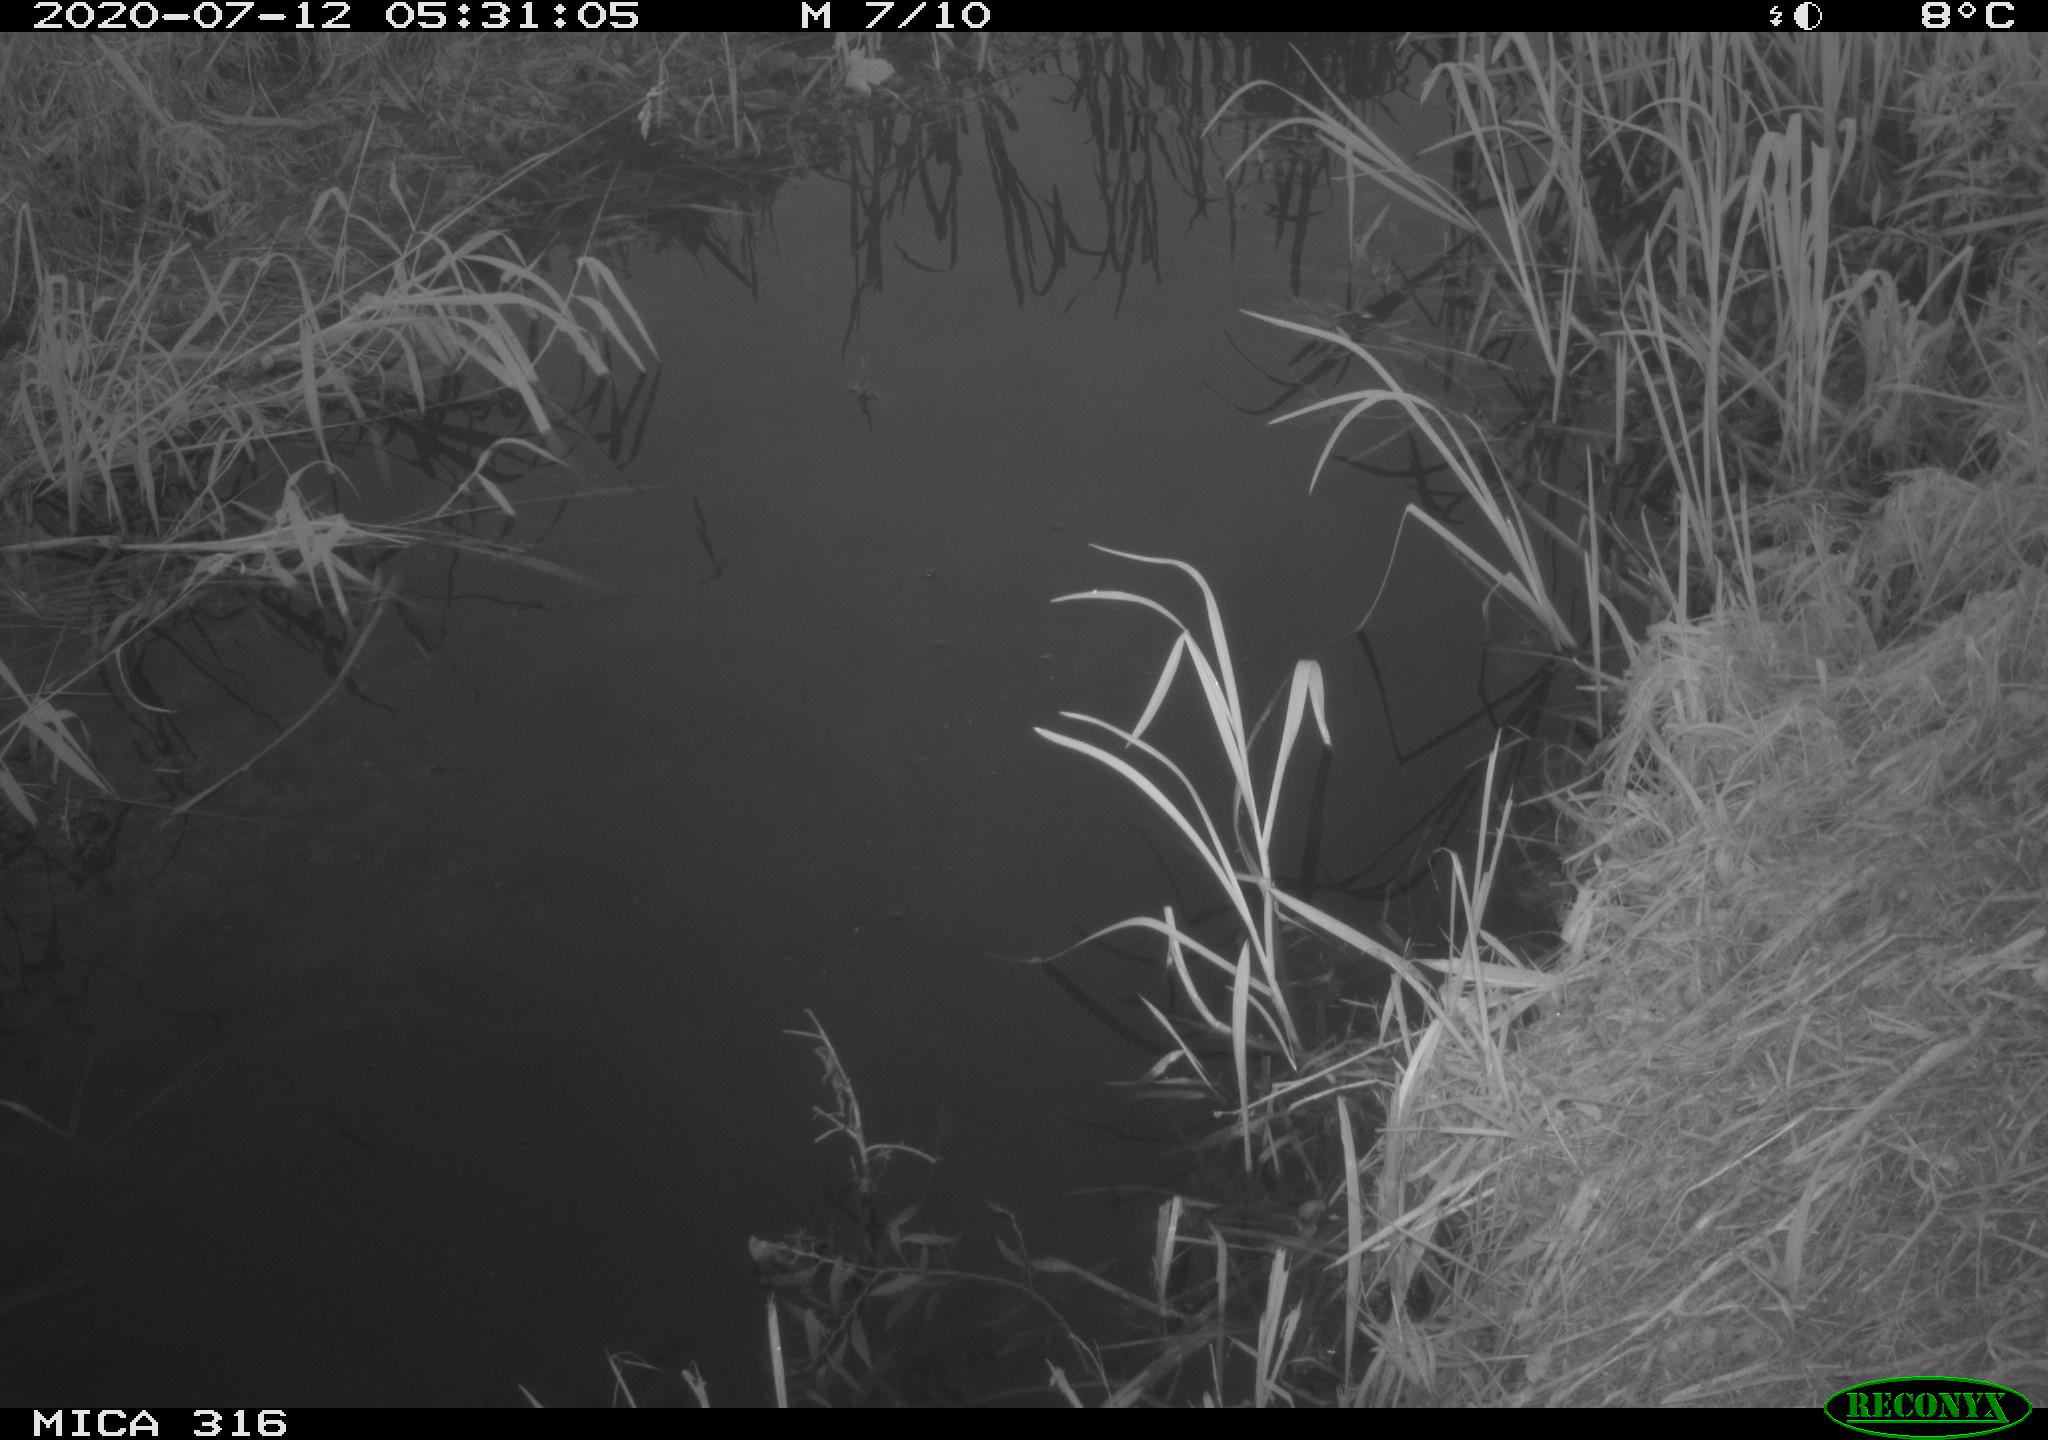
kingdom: Animalia
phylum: Chordata
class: Aves
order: Anseriformes
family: Anatidae
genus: Anas
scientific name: Anas platyrhynchos
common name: Mallard
